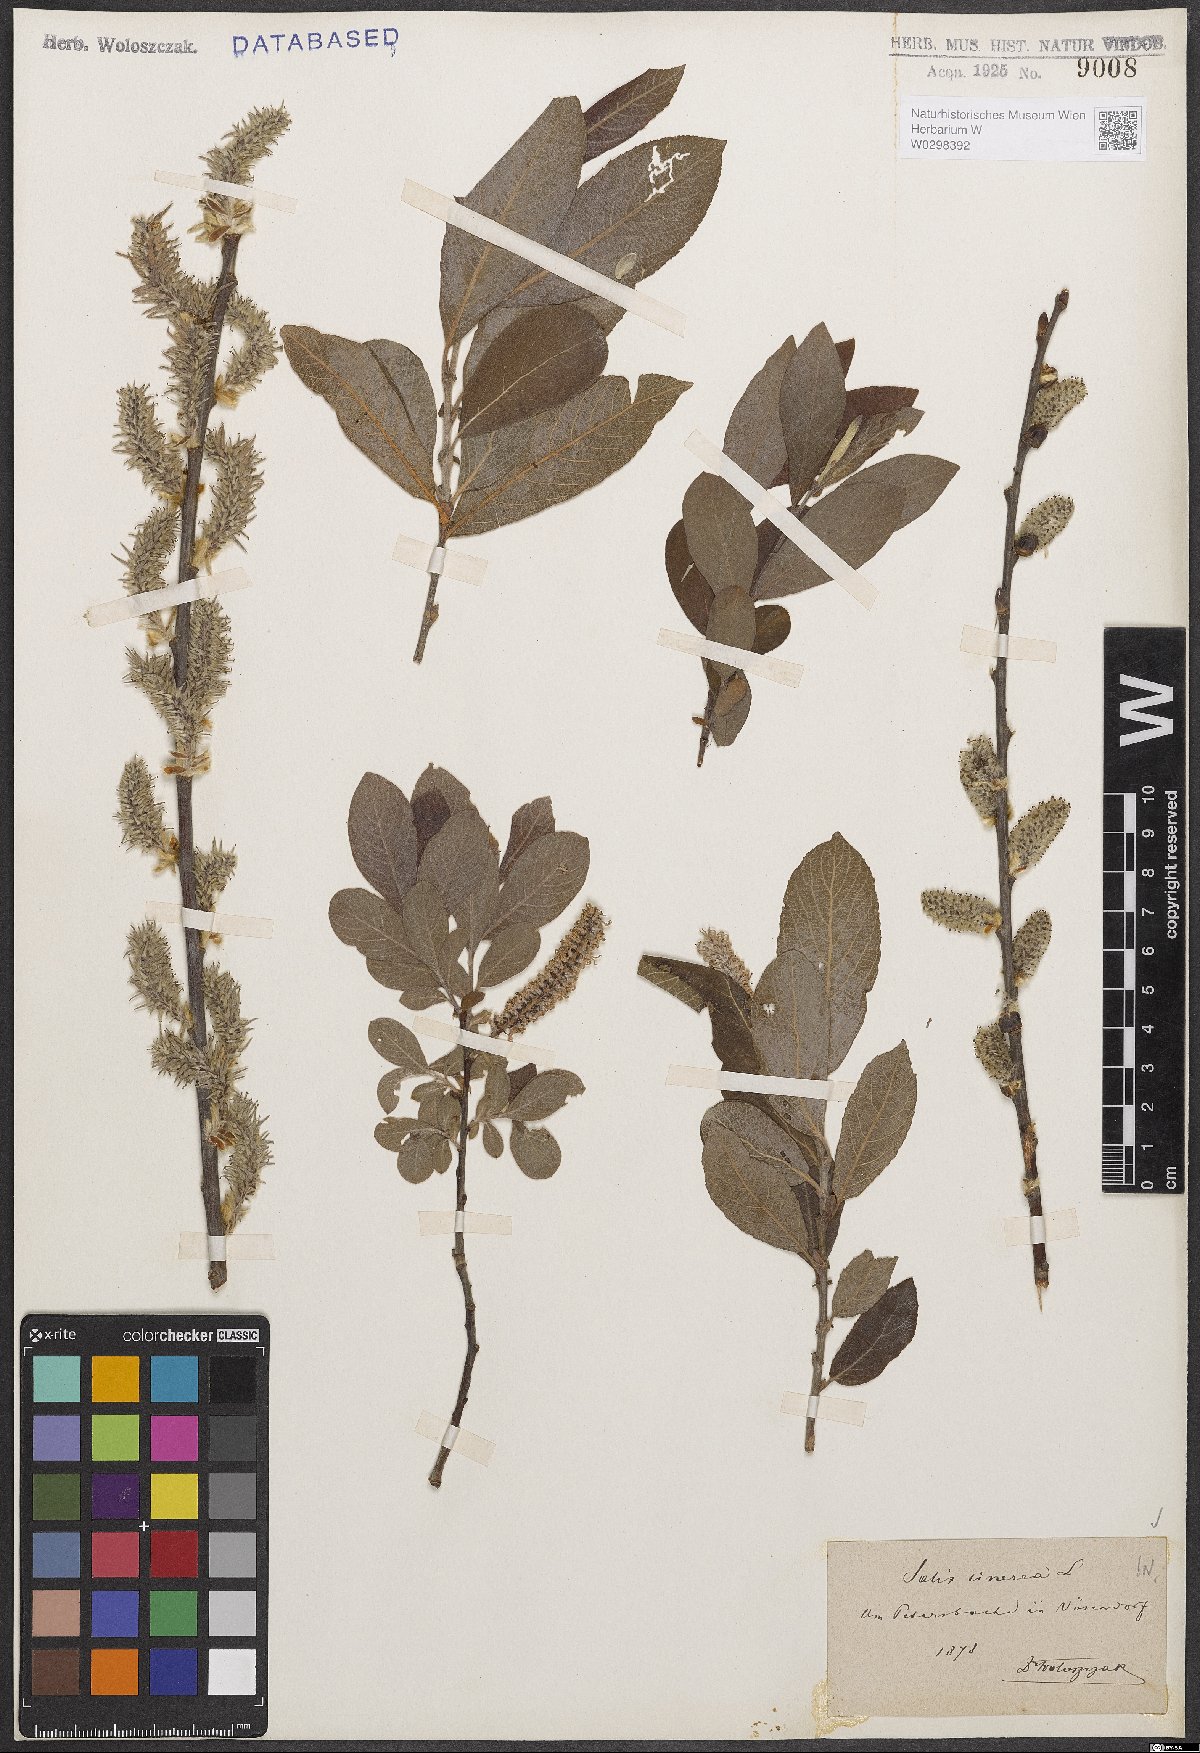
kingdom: Plantae
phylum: Tracheophyta
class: Magnoliopsida
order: Malpighiales
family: Salicaceae
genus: Salix
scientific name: Salix cinerea
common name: Common sallow
